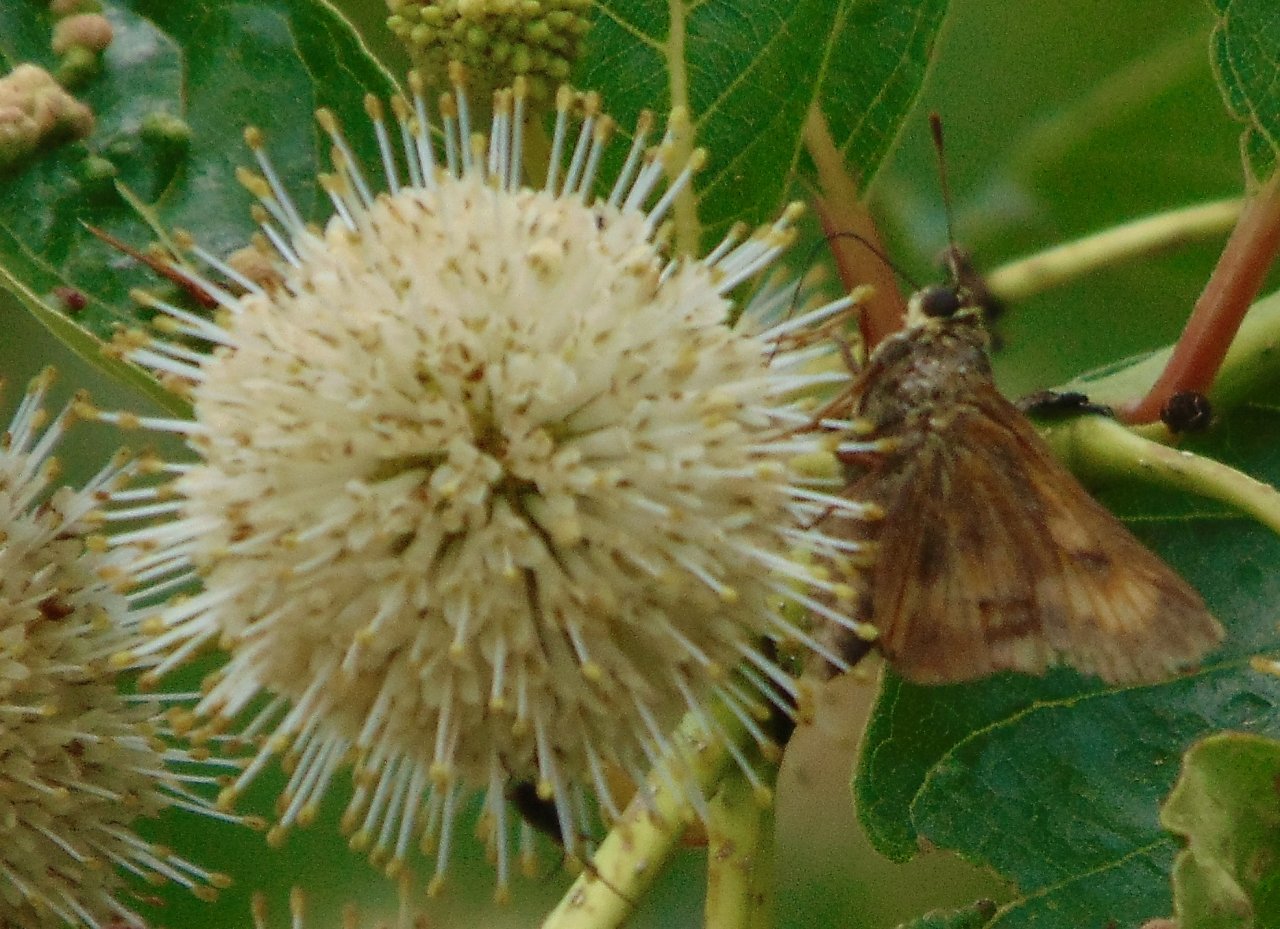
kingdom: Animalia
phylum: Arthropoda
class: Insecta
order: Lepidoptera
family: Hesperiidae
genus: Euphyes
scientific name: Euphyes conspicua
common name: Black Dash
